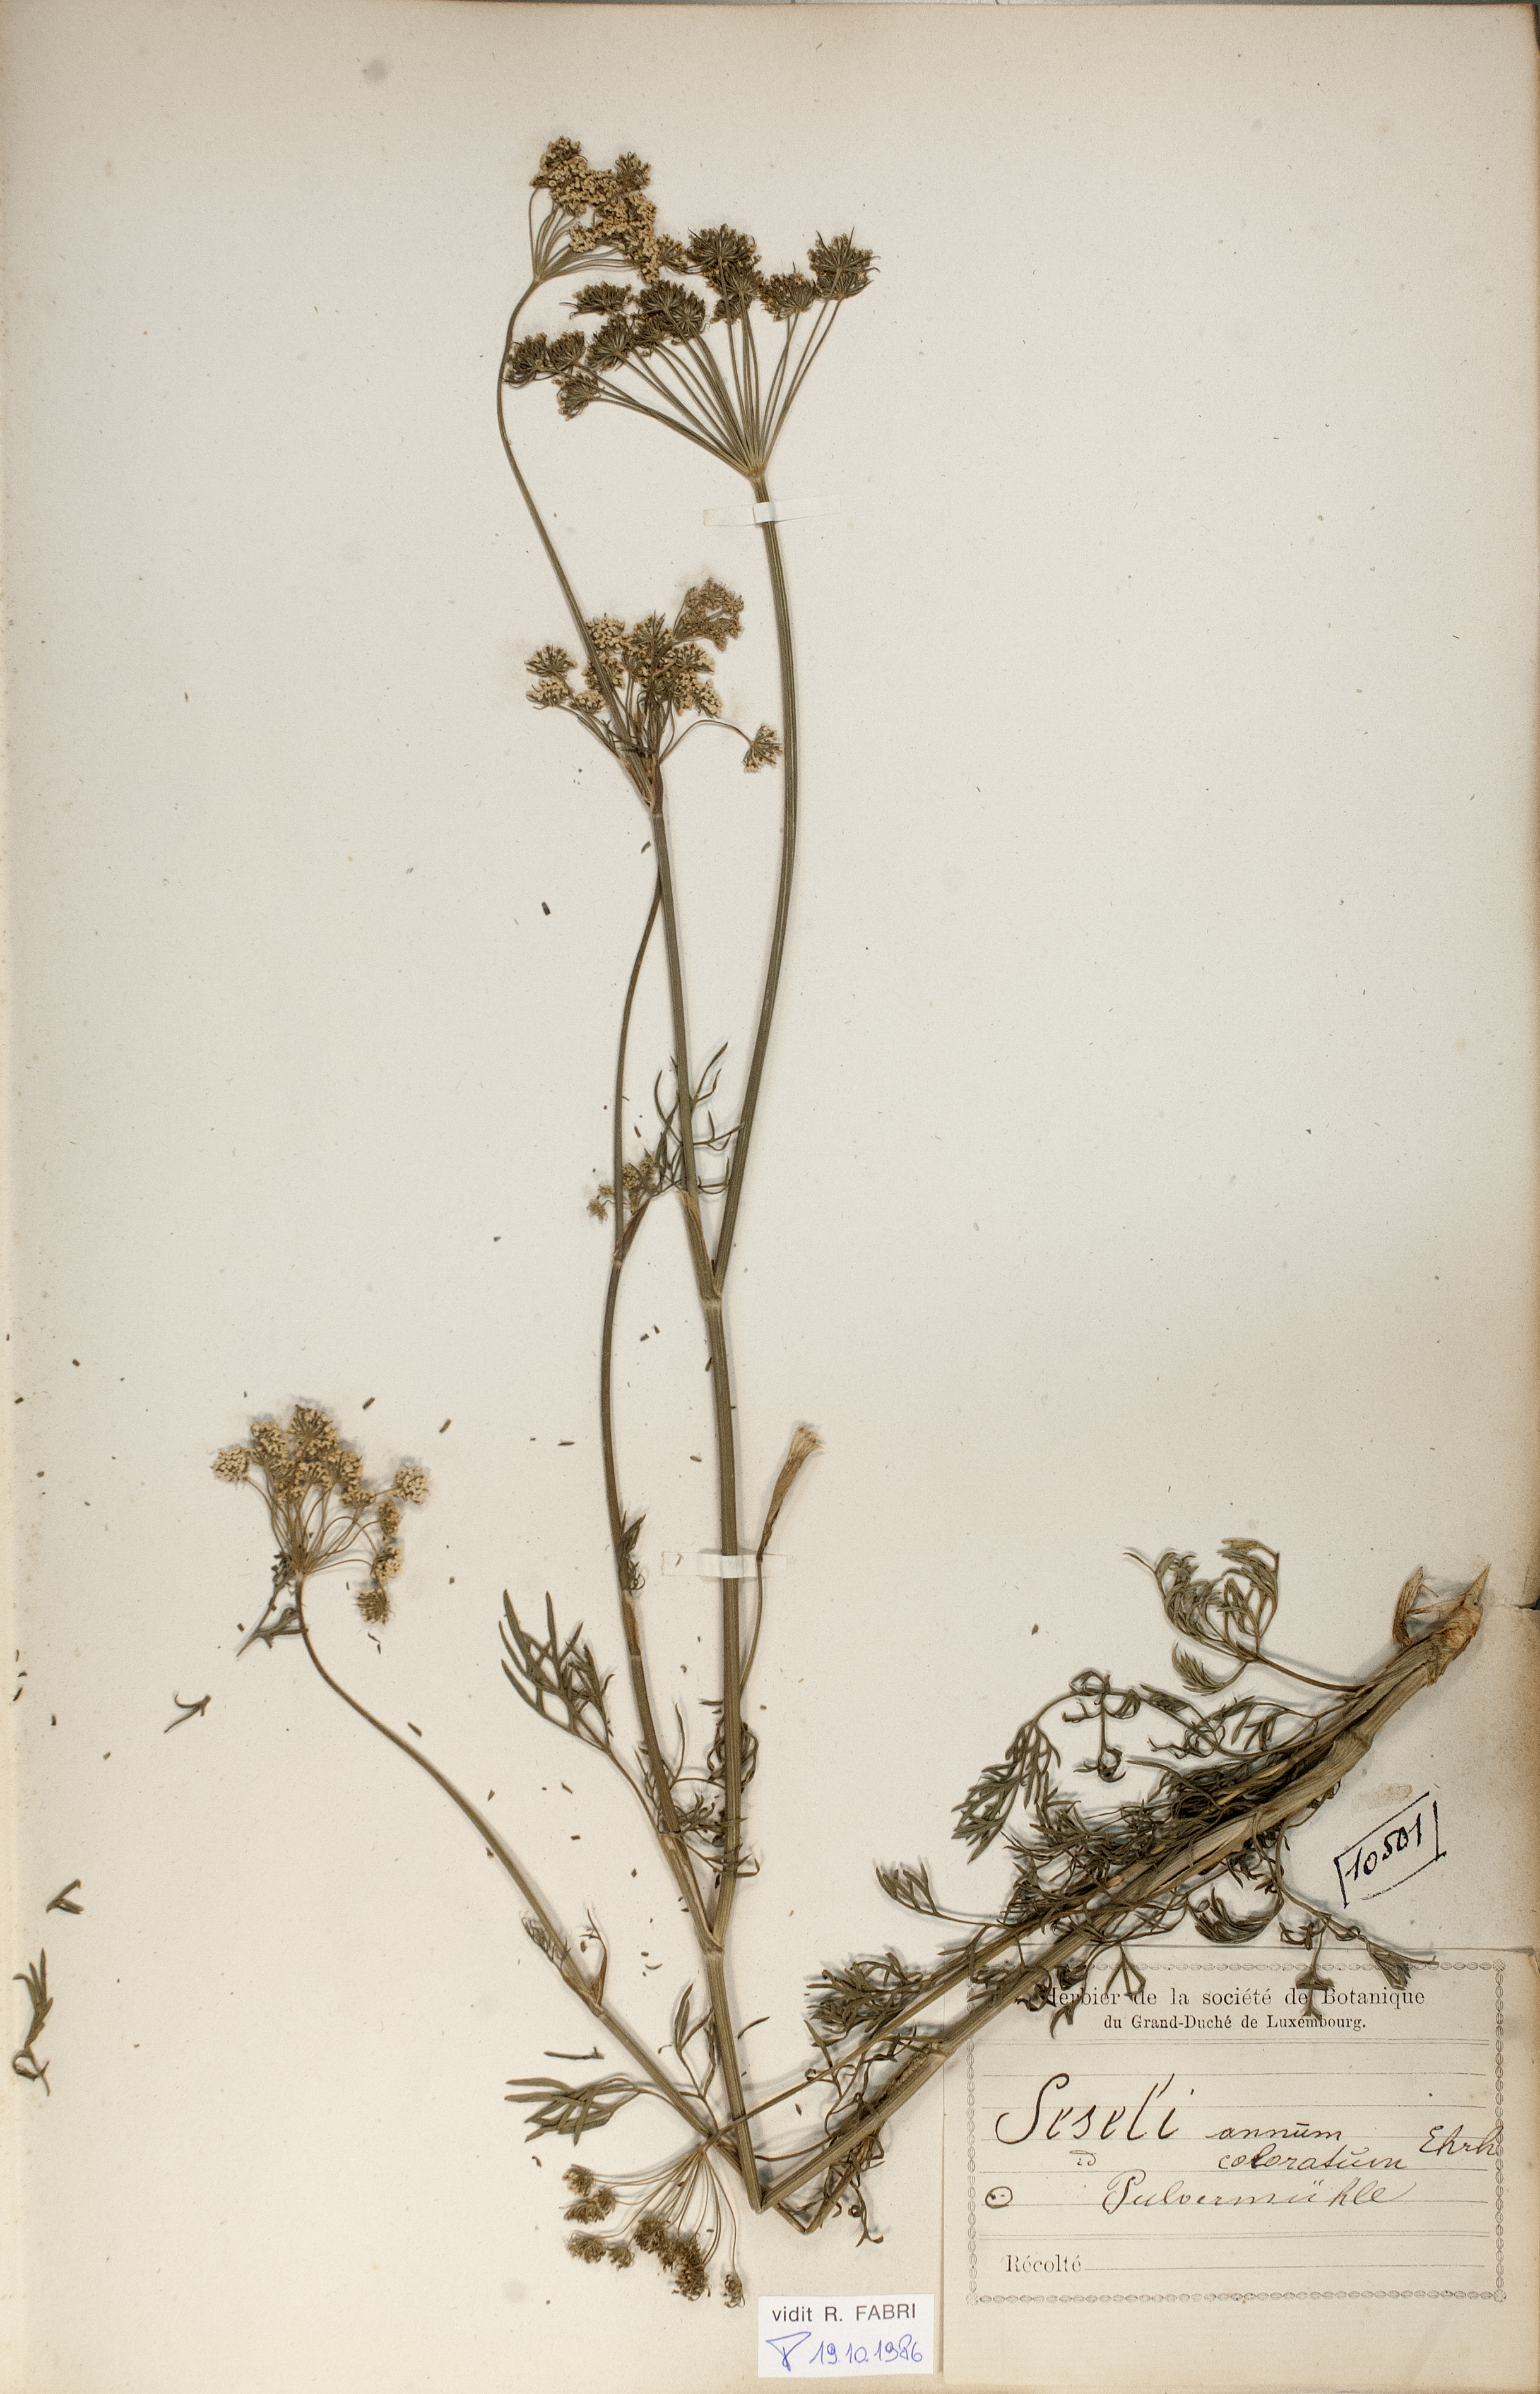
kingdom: Plantae
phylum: Tracheophyta
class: Magnoliopsida
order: Apiales
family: Apiaceae
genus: Seseli
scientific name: Seseli annuum
